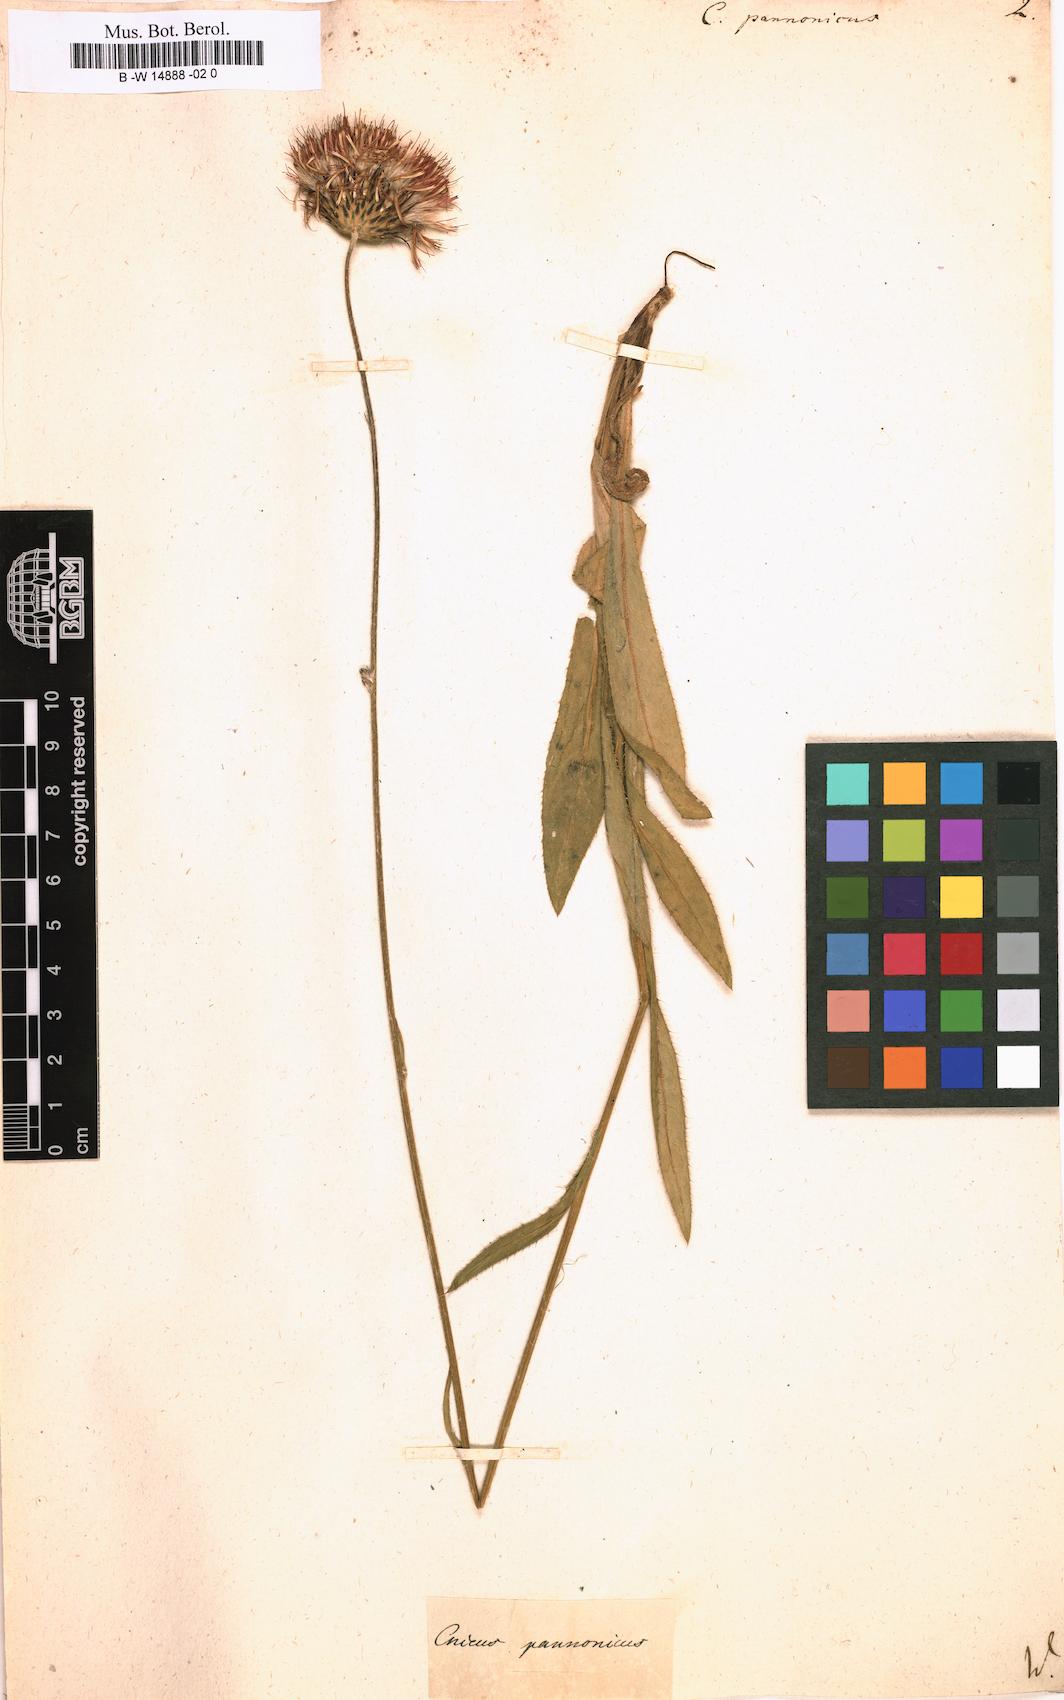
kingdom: Plantae
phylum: Tracheophyta
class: Magnoliopsida
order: Asterales
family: Asteraceae
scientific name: Asteraceae
